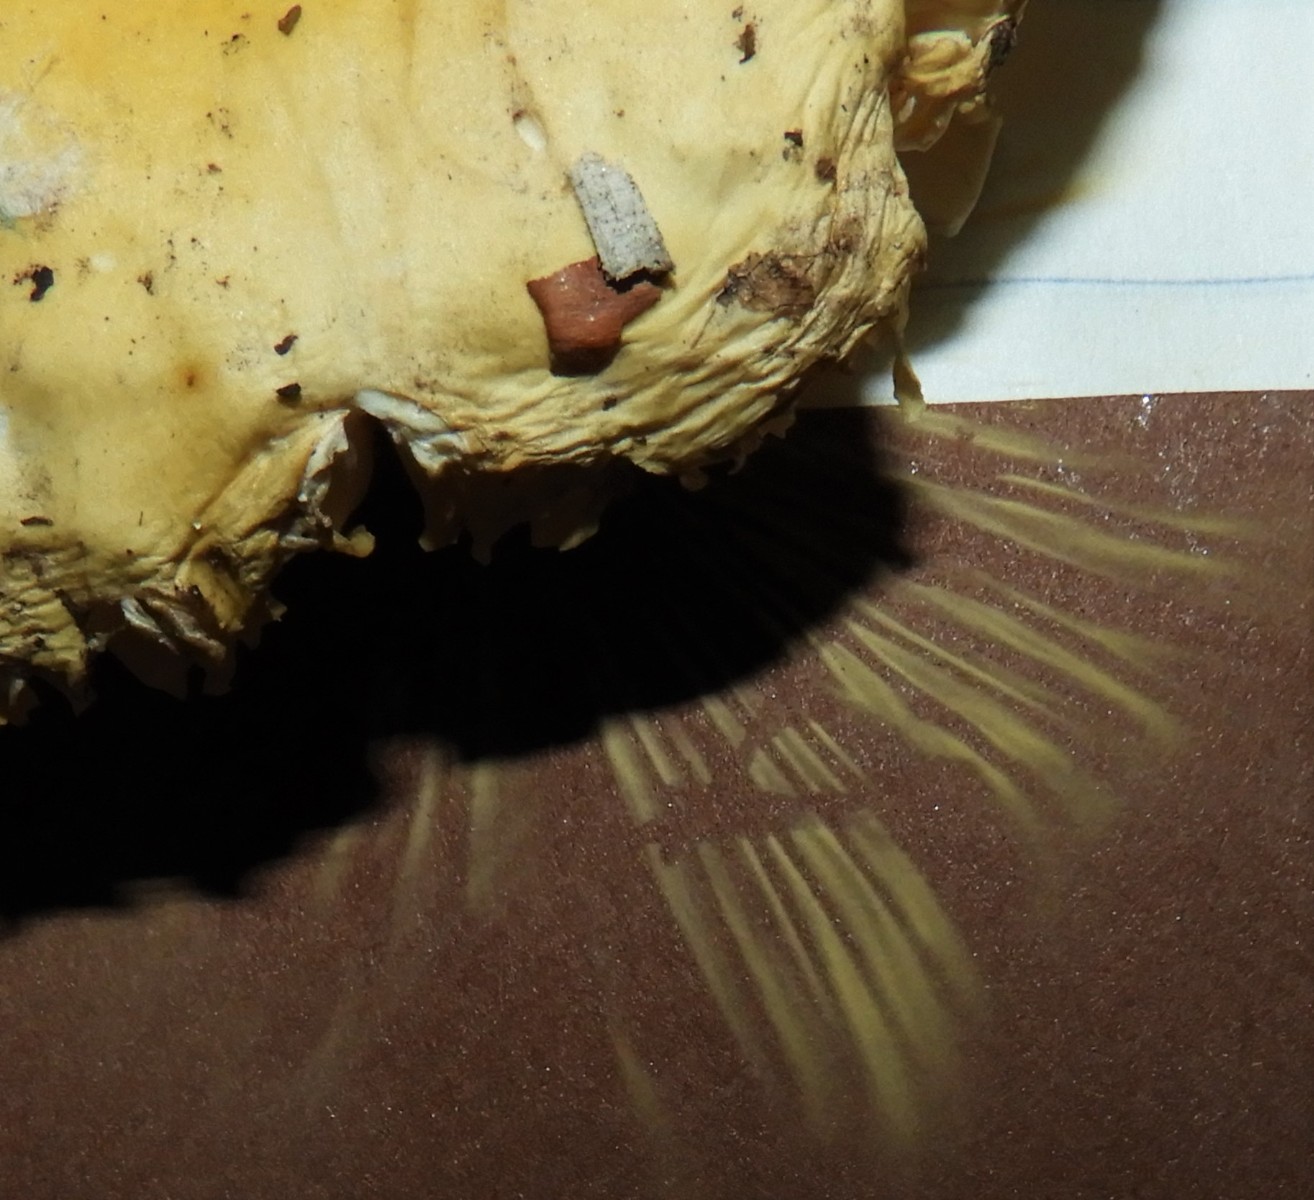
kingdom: Fungi
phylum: Basidiomycota
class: Agaricomycetes
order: Russulales
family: Russulaceae
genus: Russula
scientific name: Russula claroflava
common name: birke-skørhat
